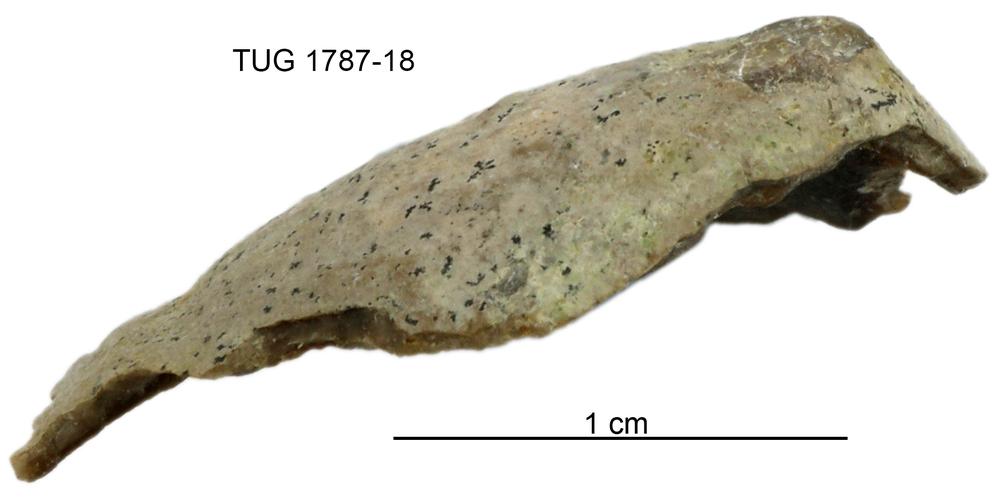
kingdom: Animalia
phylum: Brachiopoda
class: Lingulata
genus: Pseudometoptoma
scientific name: Pseudometoptoma
